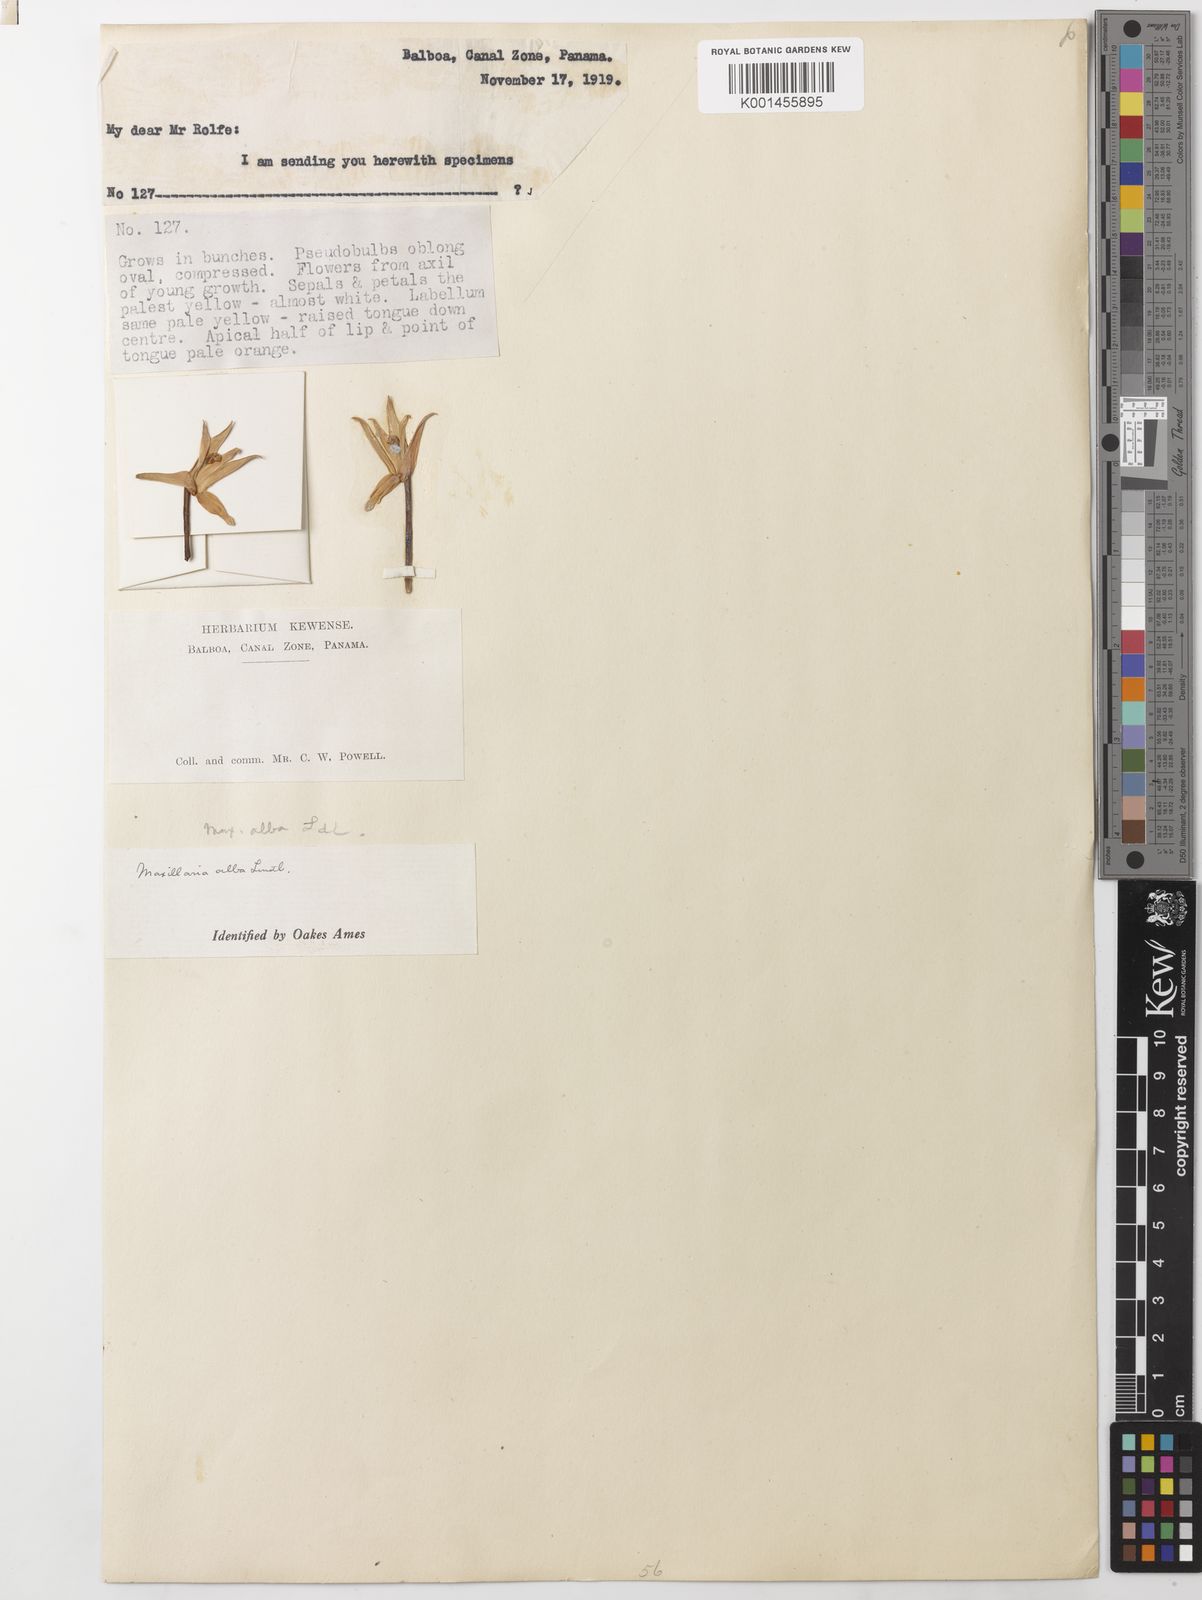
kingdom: Plantae
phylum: Tracheophyta
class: Liliopsida
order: Asparagales
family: Orchidaceae
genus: Maxillaria
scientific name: Maxillaria alba
